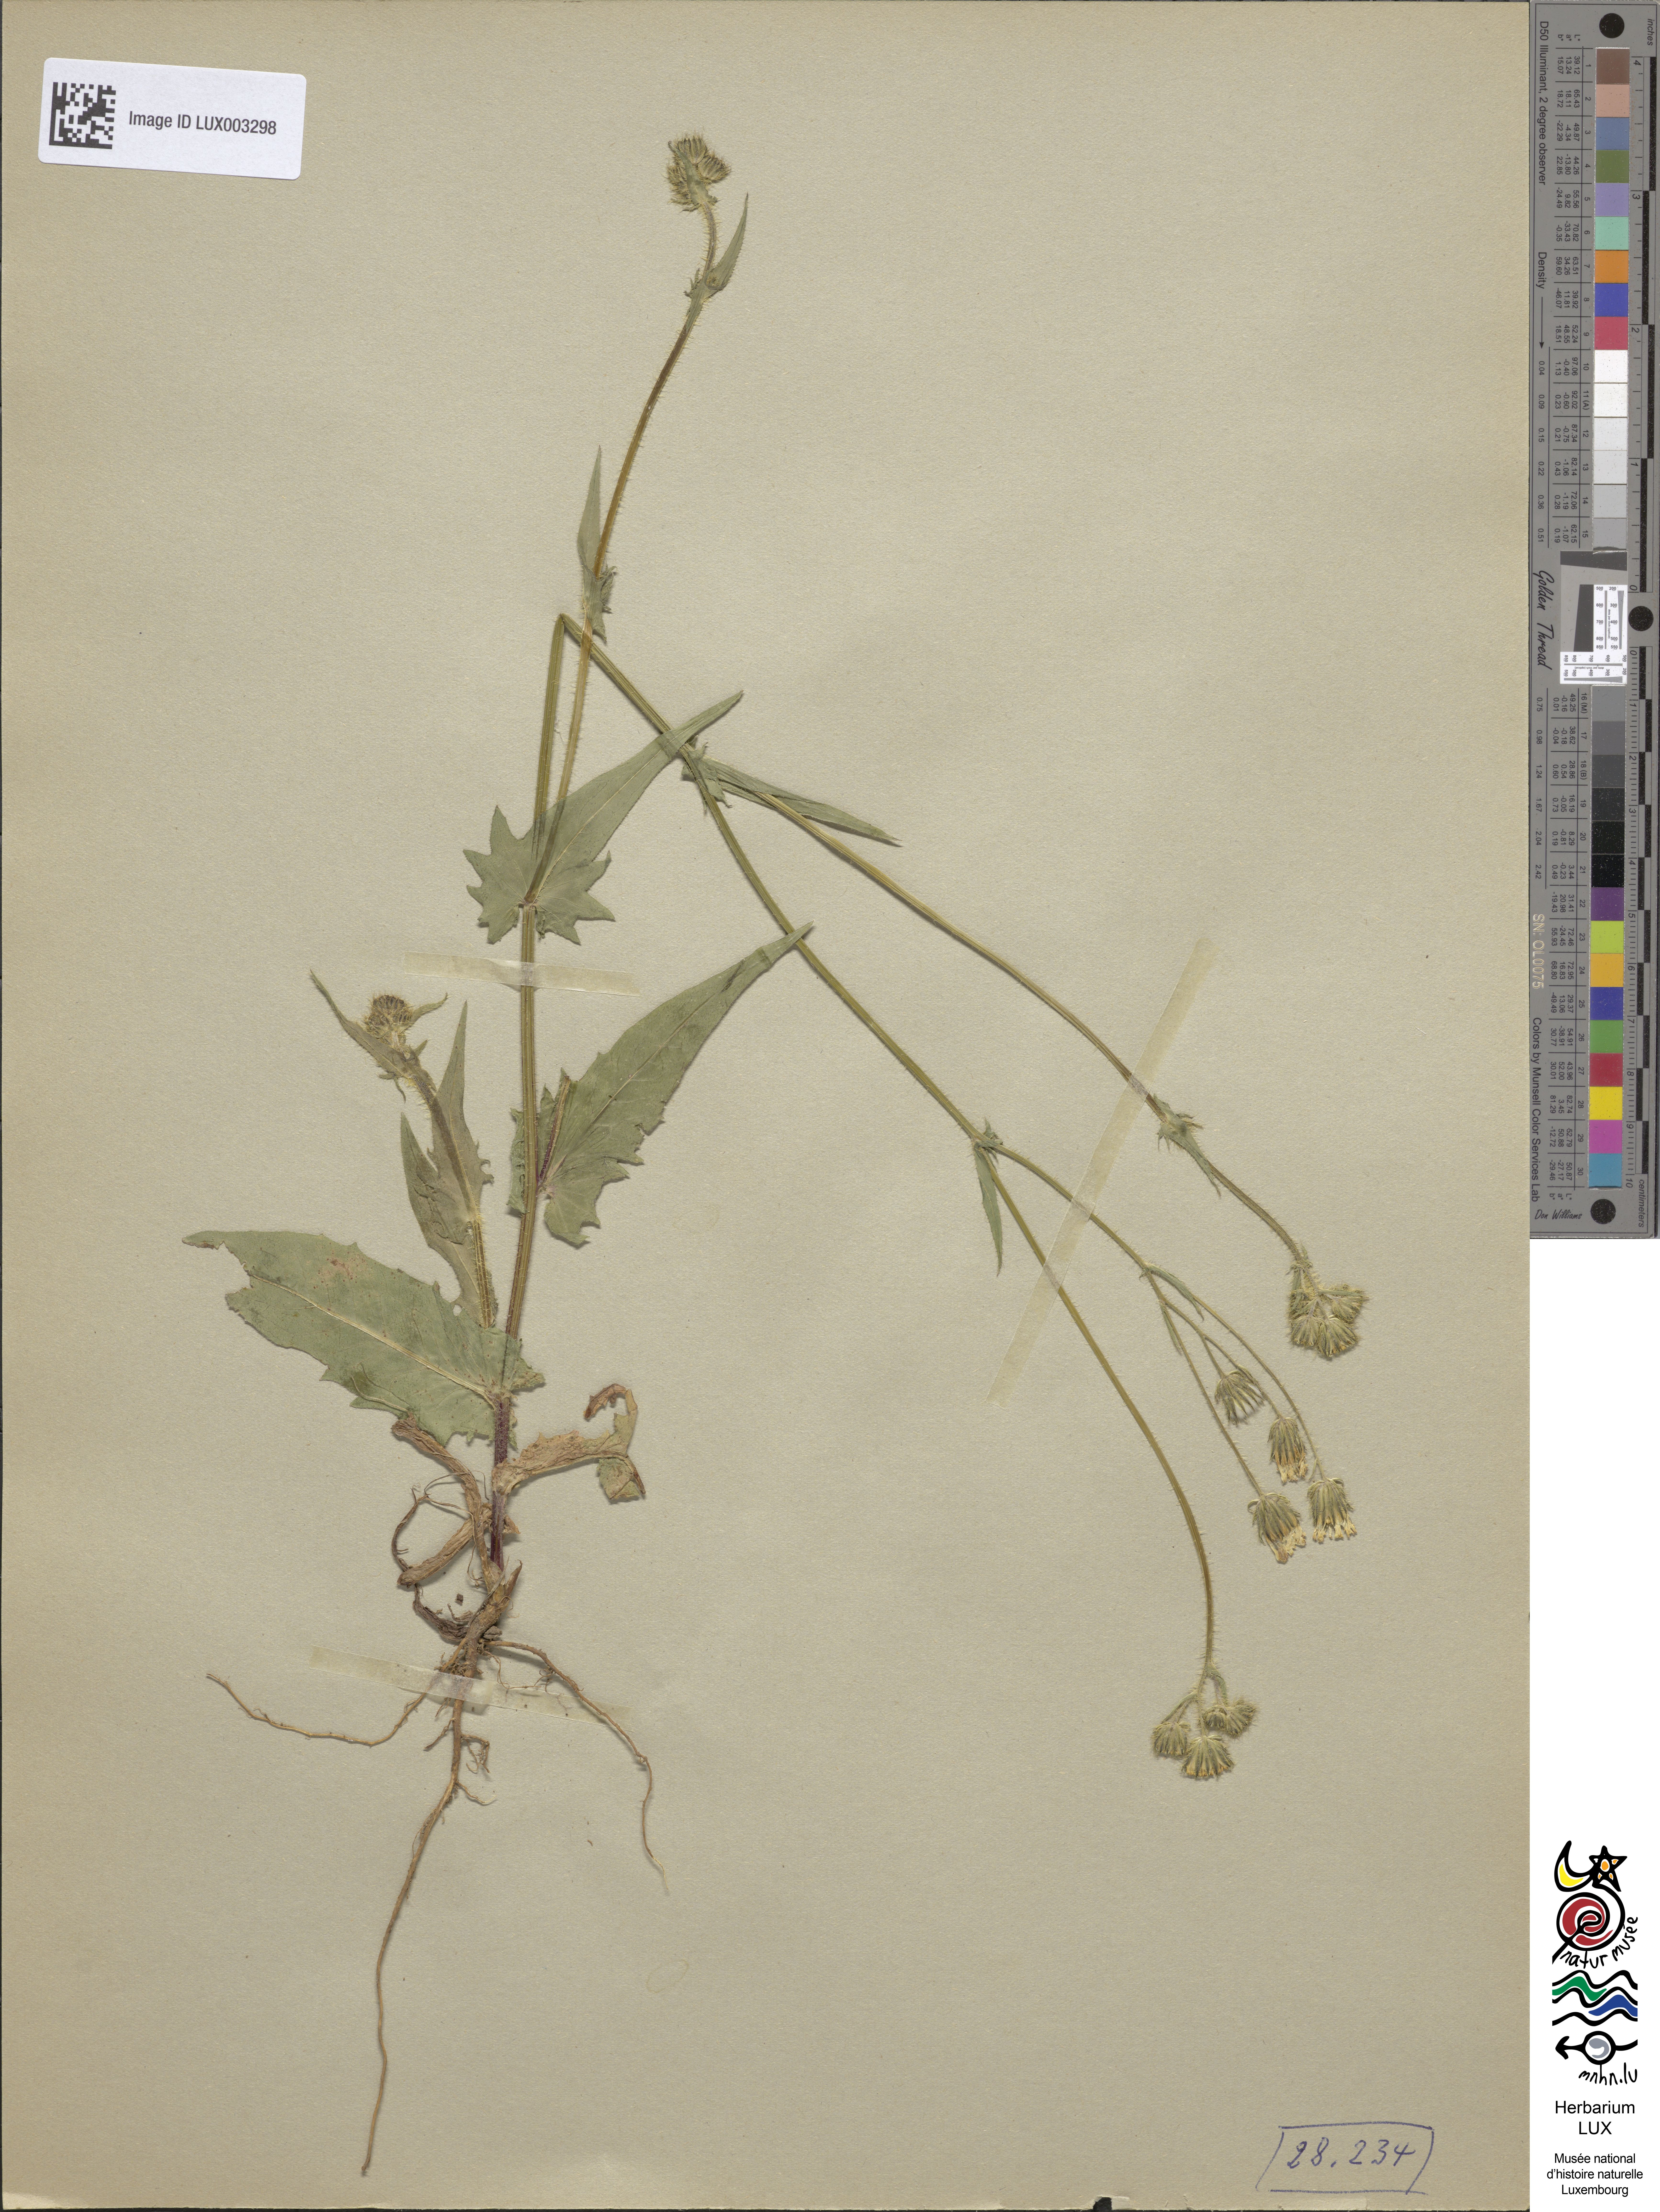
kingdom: Plantae
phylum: Tracheophyta
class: Magnoliopsida
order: Asterales
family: Asteraceae
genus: Crepis
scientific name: Crepis setosa
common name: Bristly hawk's-beard
